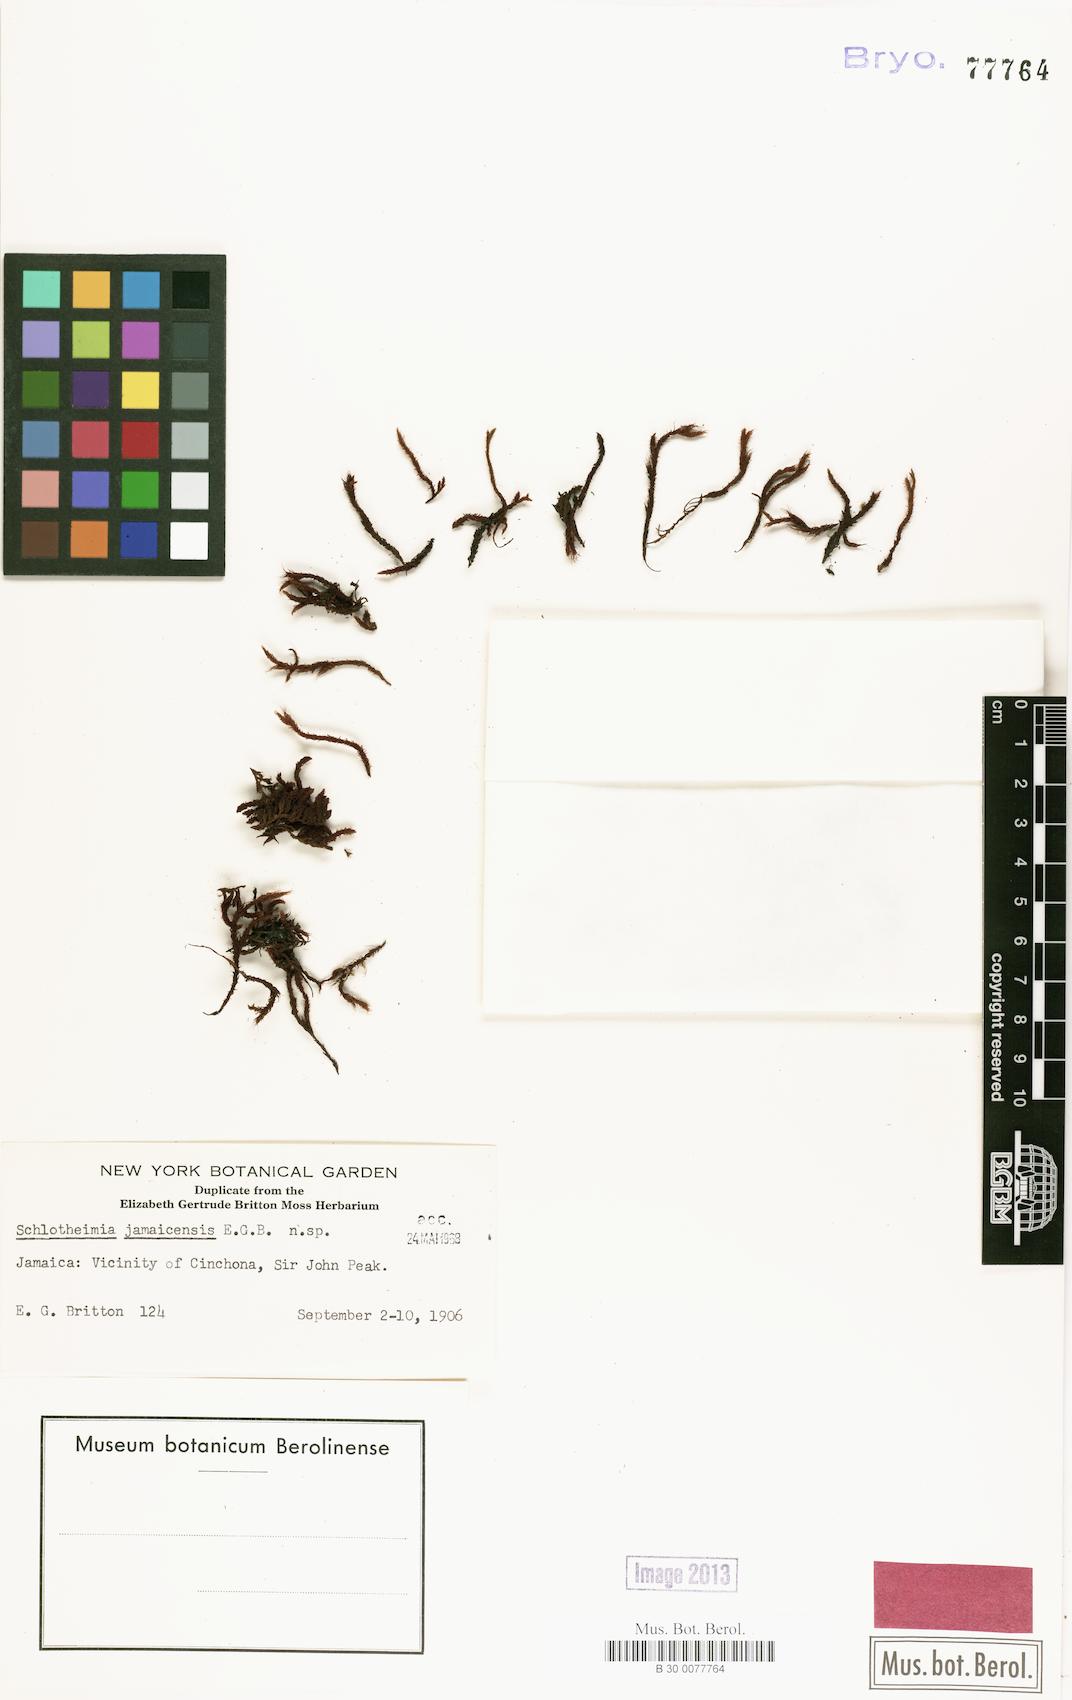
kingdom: Plantae
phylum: Bryophyta
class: Bryopsida
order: Orthotrichales
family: Orthotrichaceae
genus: Schlotheimia
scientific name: Schlotheimia
